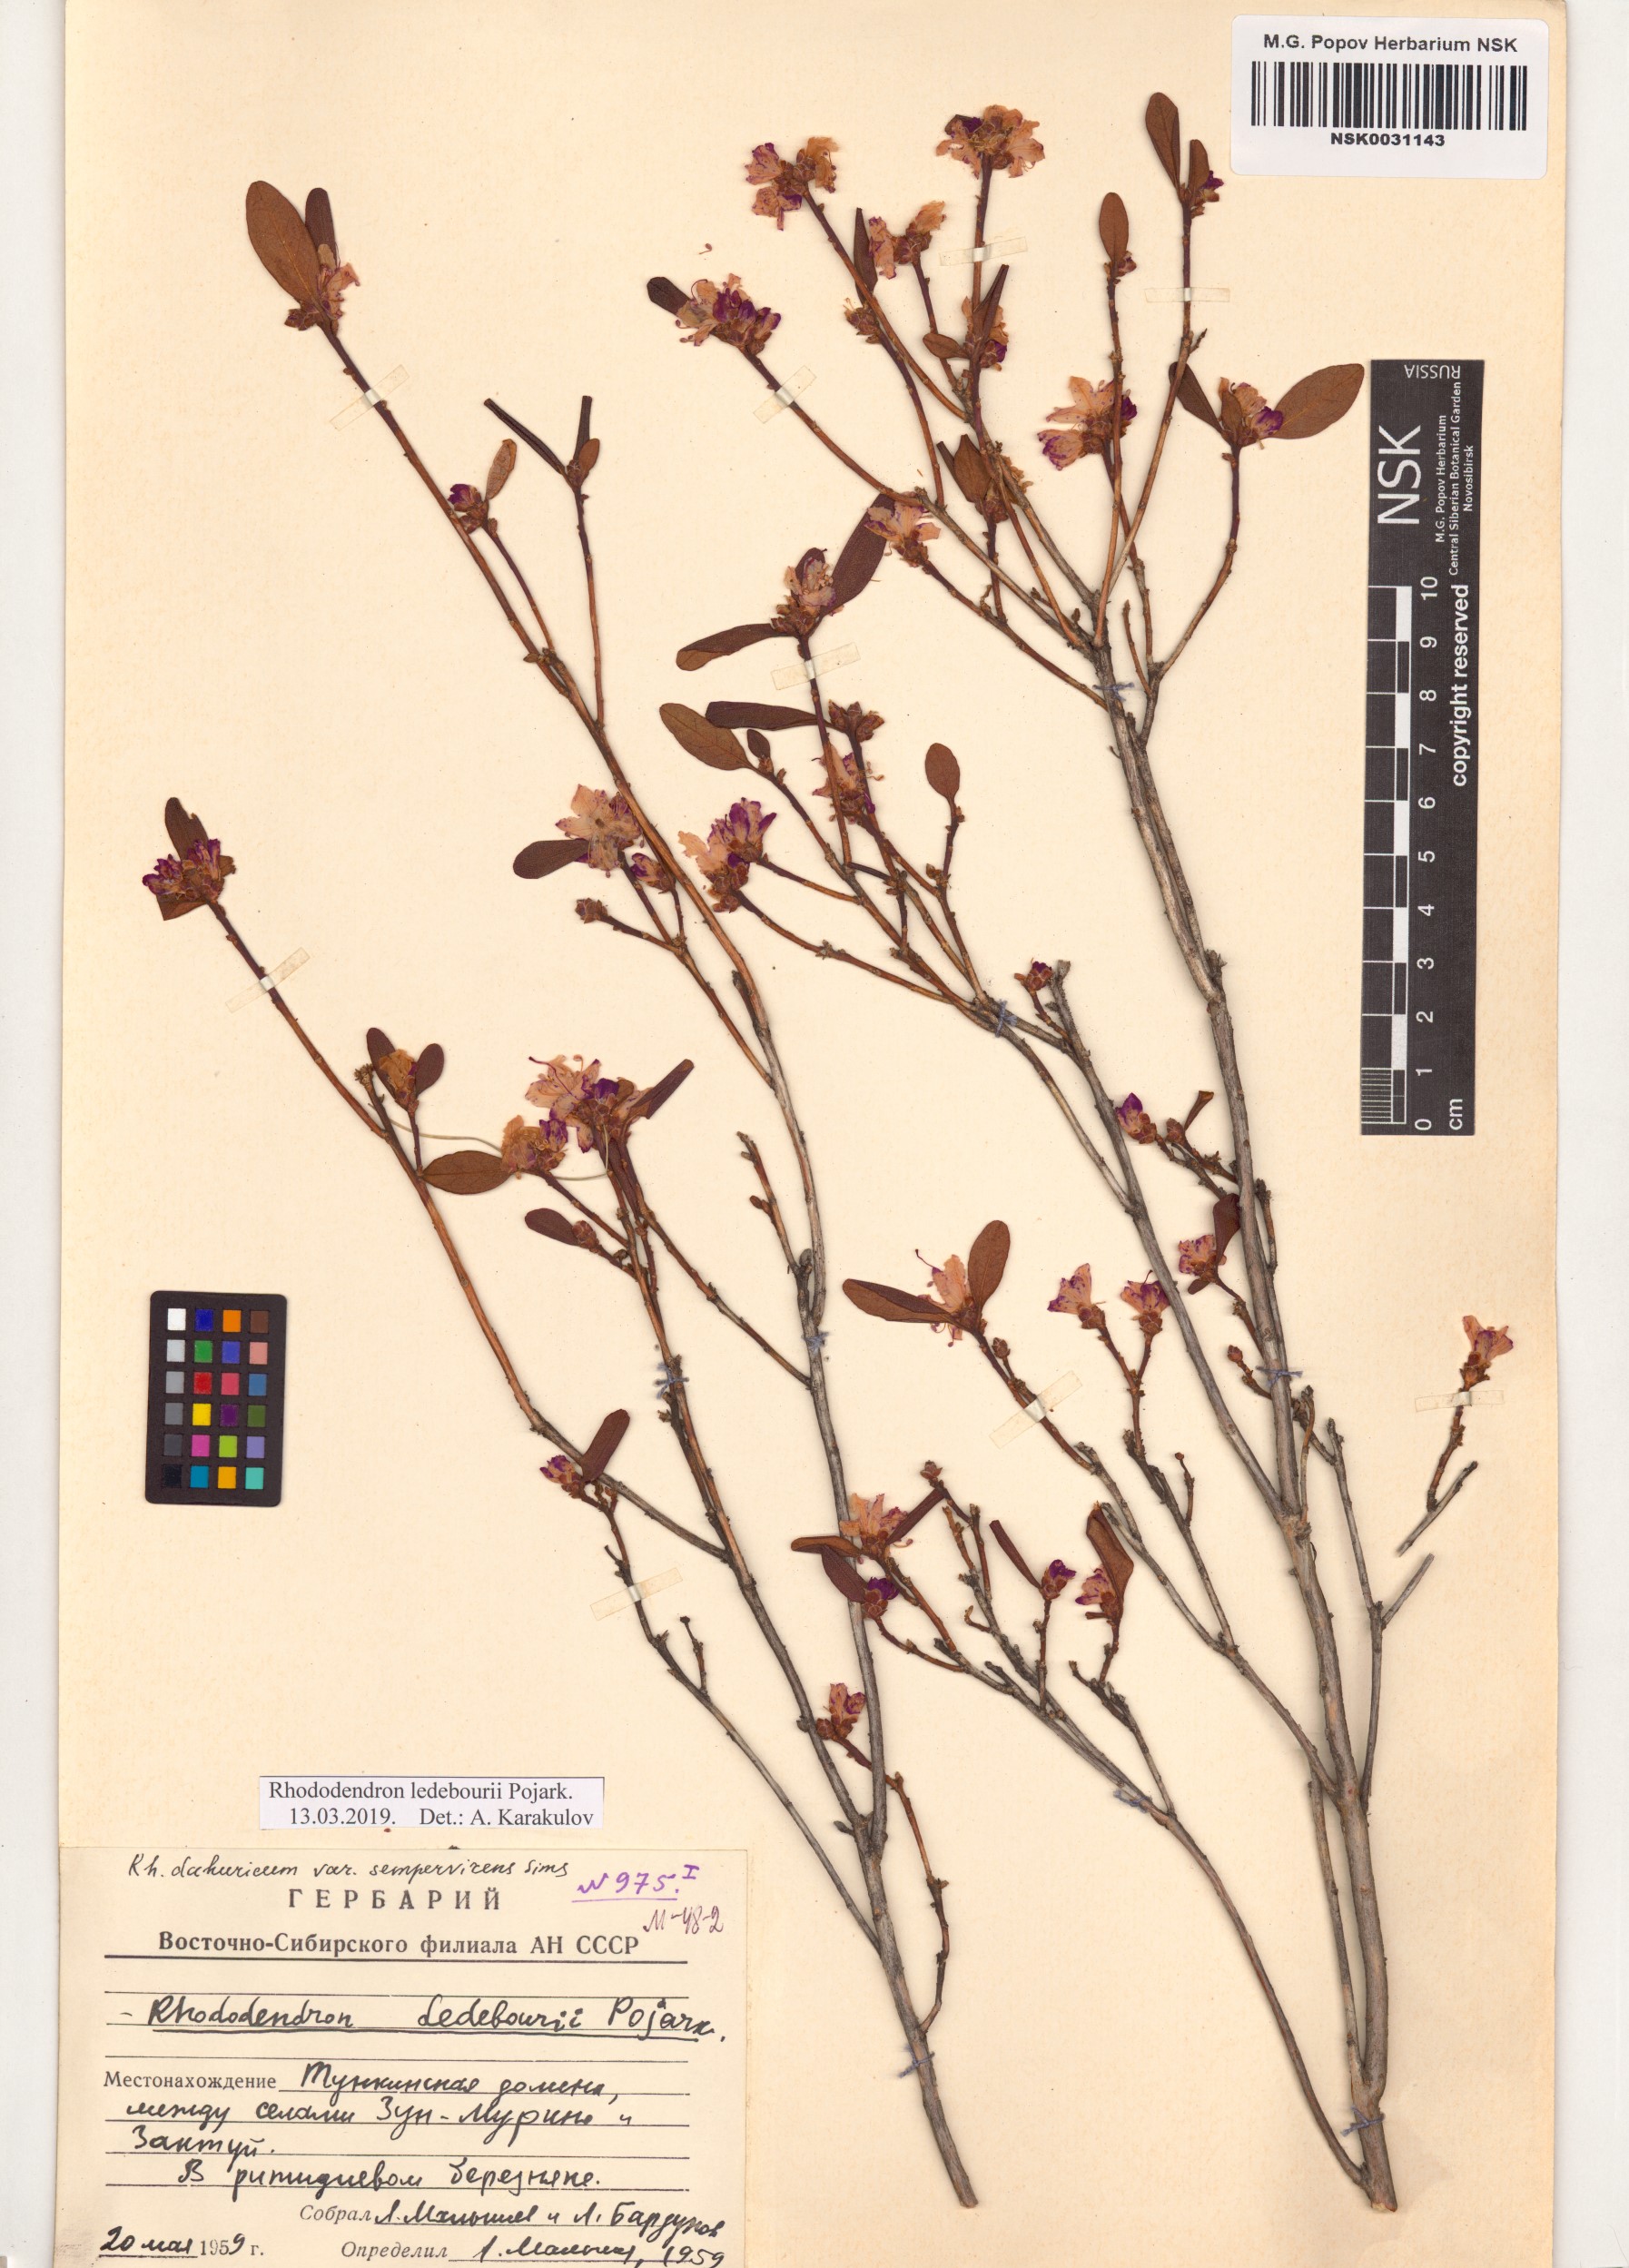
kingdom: Plantae
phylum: Tracheophyta
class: Magnoliopsida
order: Ericales
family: Ericaceae
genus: Rhododendron
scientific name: Rhododendron dauricum
